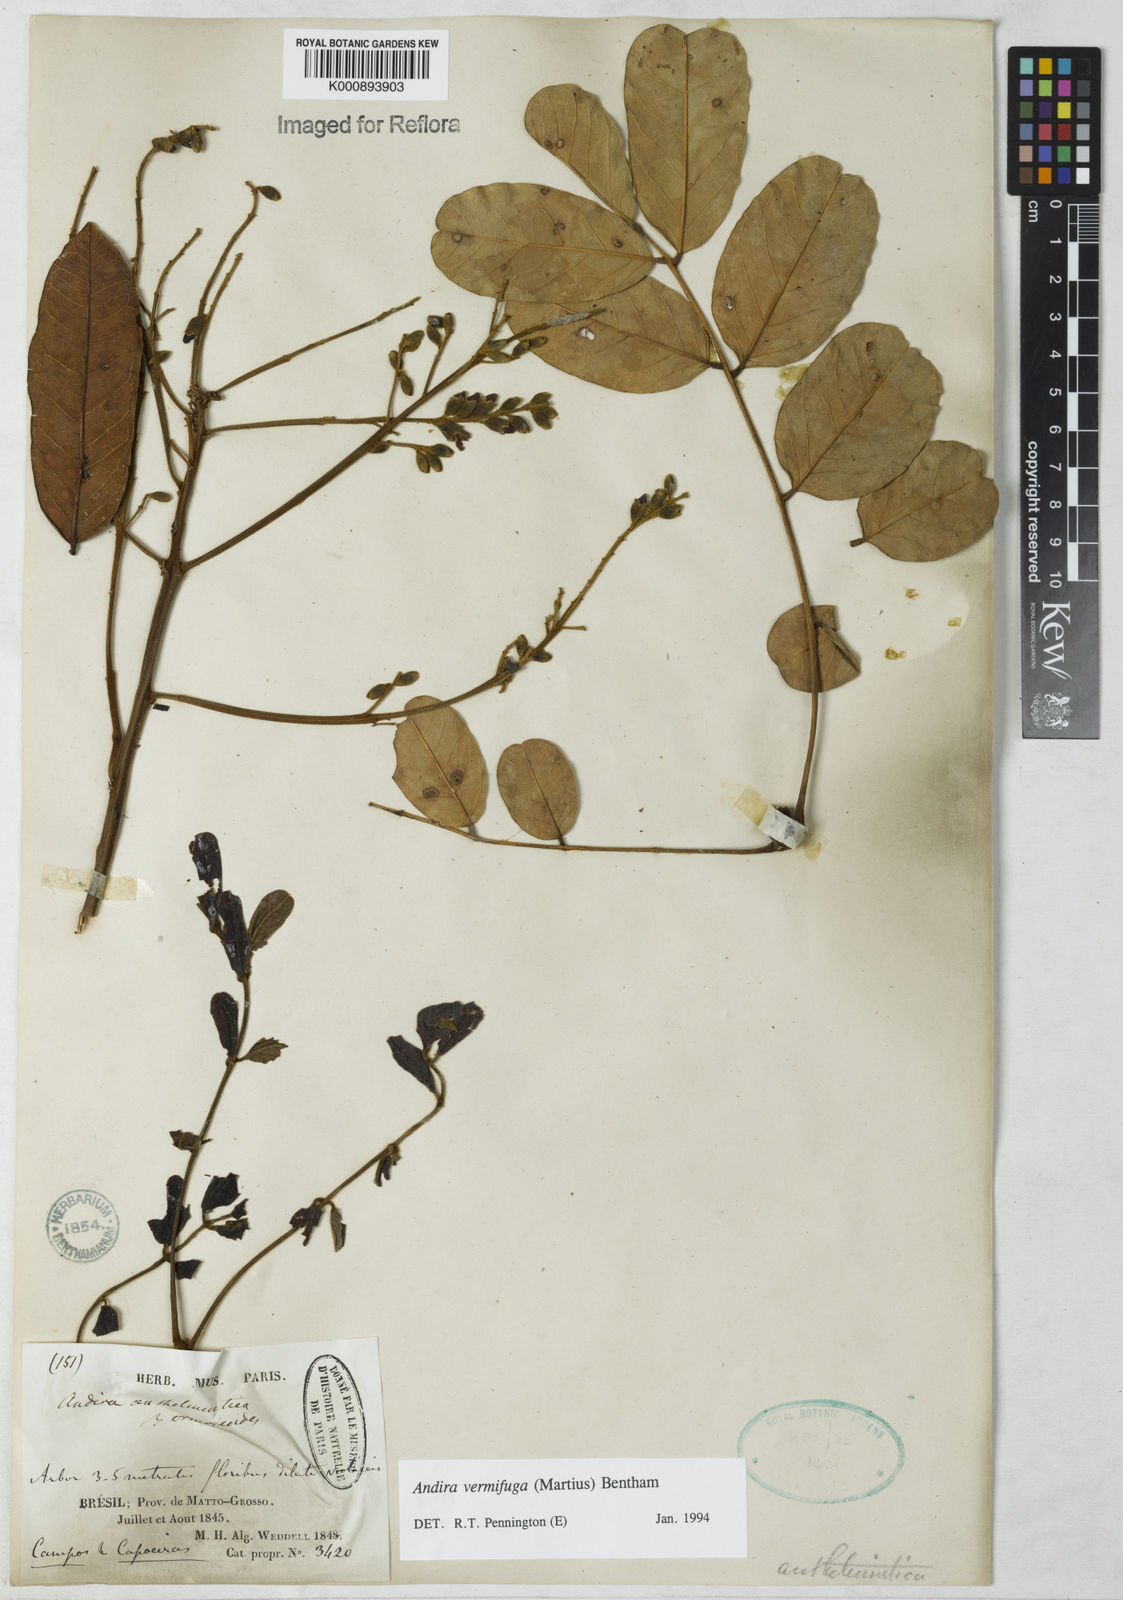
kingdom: Plantae
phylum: Tracheophyta
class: Magnoliopsida
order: Fabales
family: Fabaceae
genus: Andira
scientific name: Andira vermifuga
